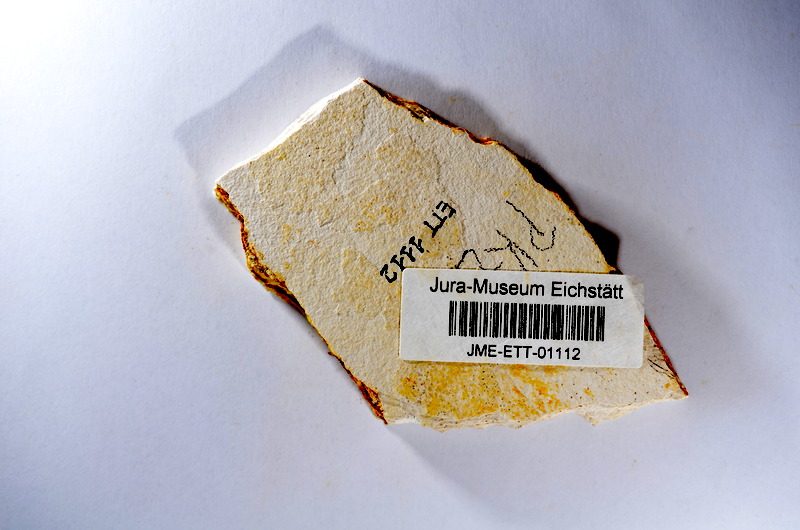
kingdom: Animalia
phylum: Chordata
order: Salmoniformes
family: Orthogonikleithridae
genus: Orthogonikleithrus
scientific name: Orthogonikleithrus hoelli
